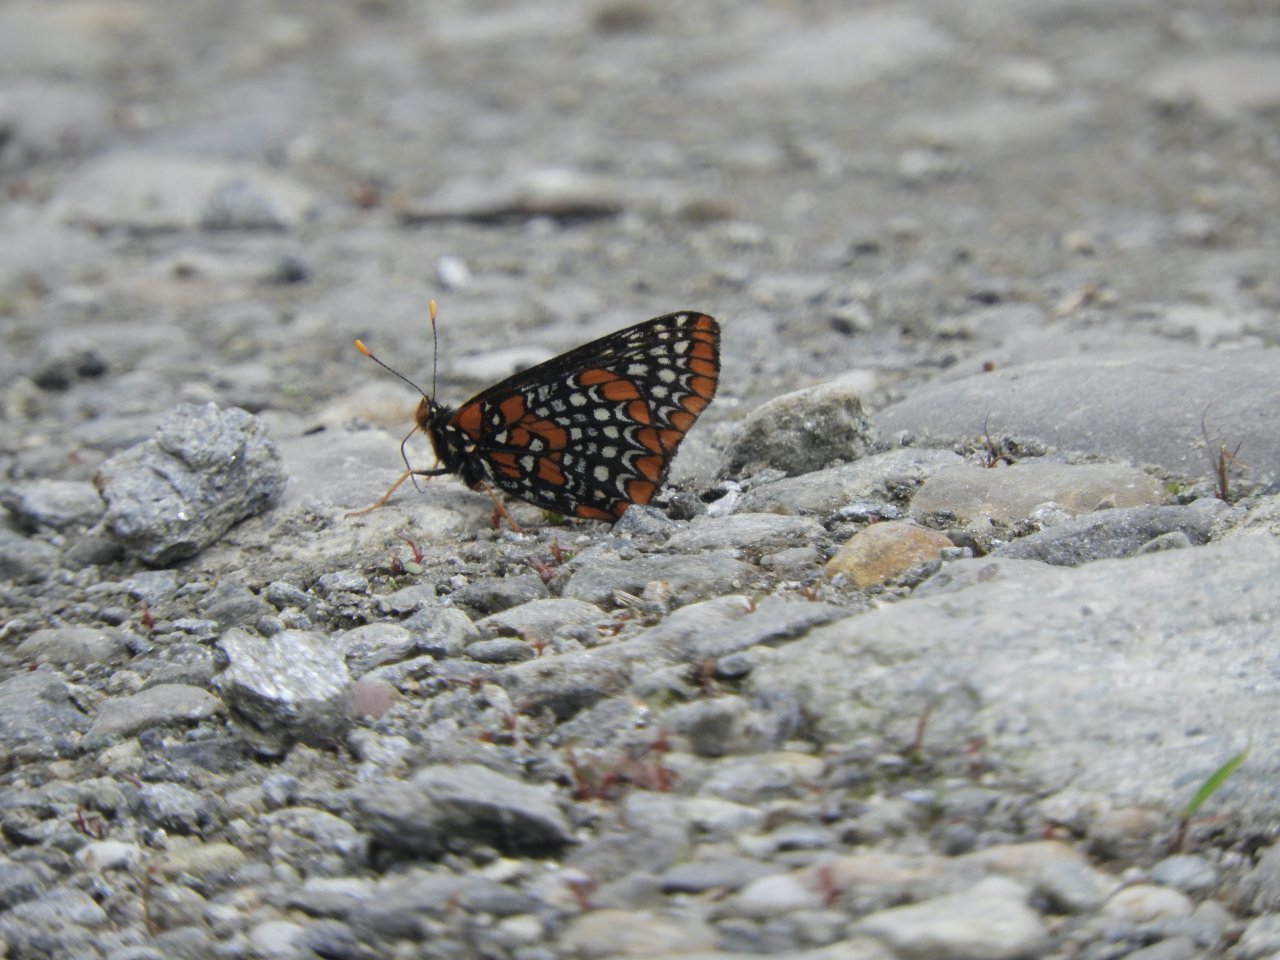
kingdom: Animalia
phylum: Arthropoda
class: Insecta
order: Lepidoptera
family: Nymphalidae
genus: Euphydryas
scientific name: Euphydryas phaeton
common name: Baltimore Checkerspot
